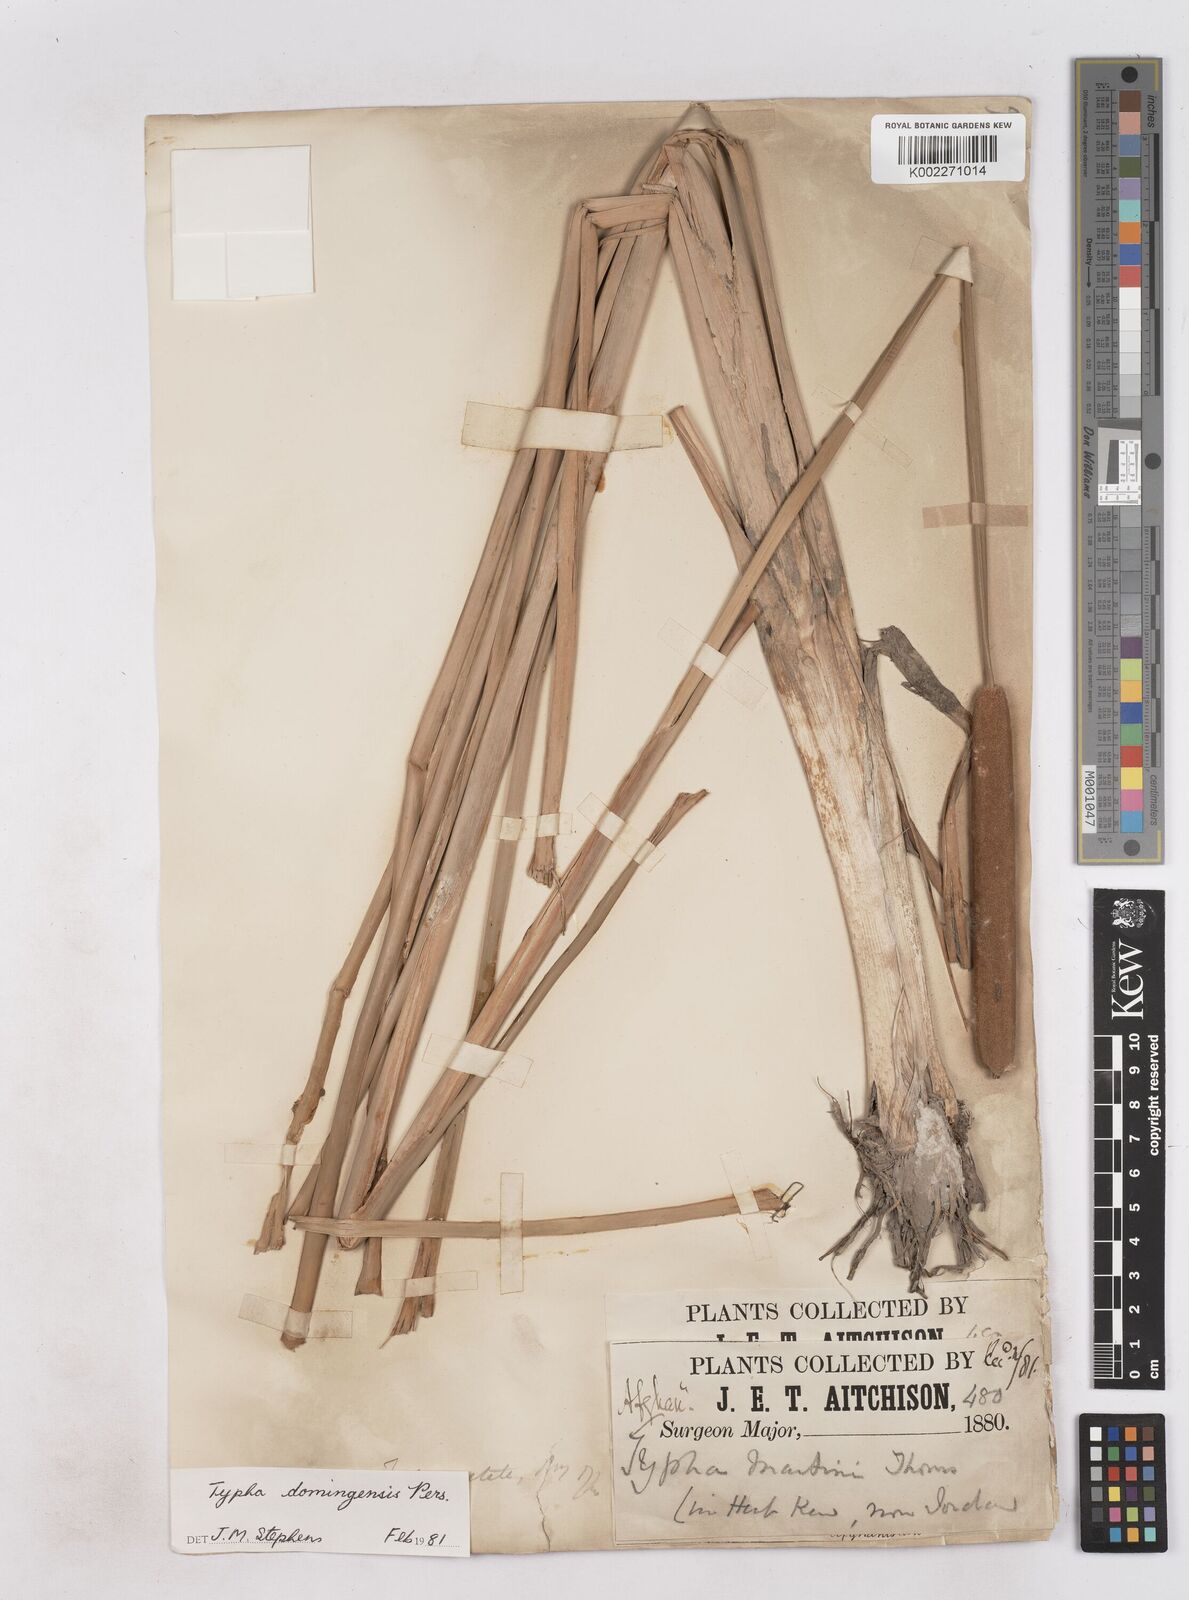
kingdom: Plantae
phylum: Tracheophyta
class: Liliopsida
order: Poales
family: Typhaceae
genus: Typha
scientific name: Typha domingensis
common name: Southern cattail
